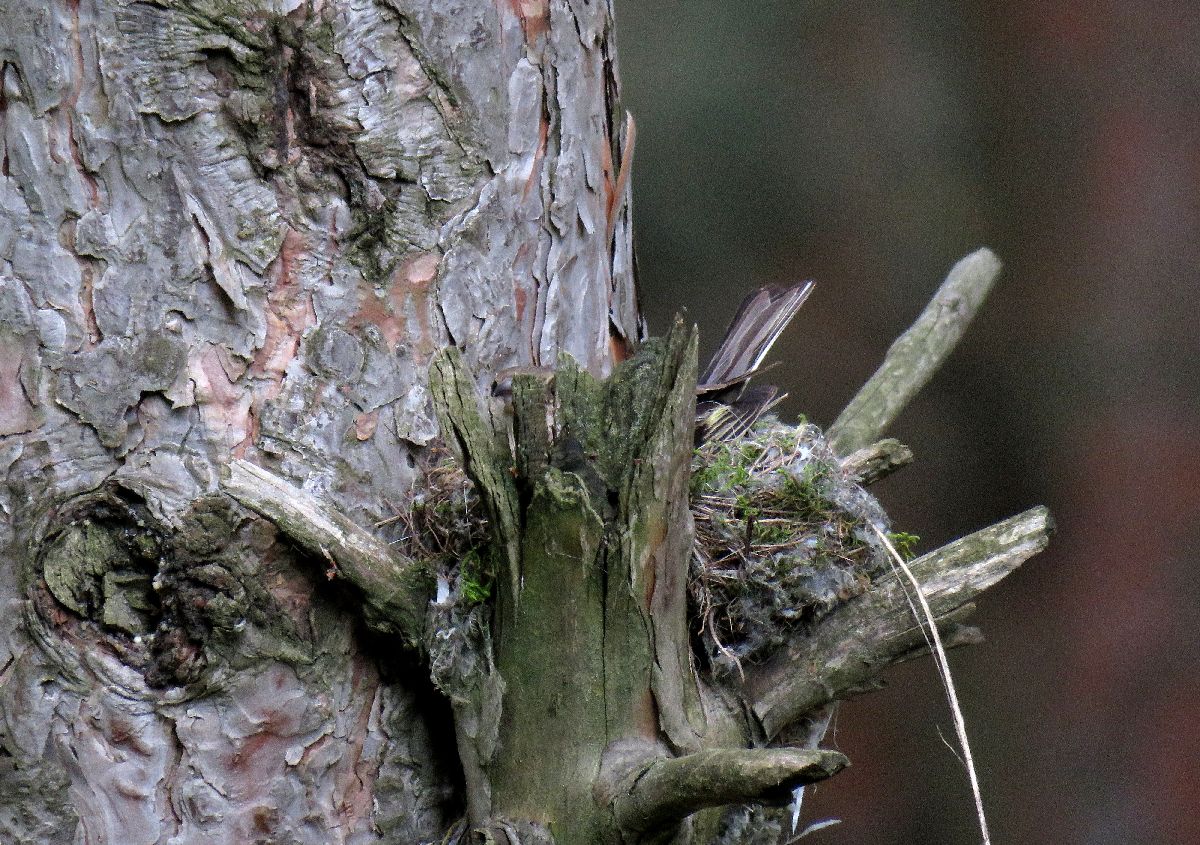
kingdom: Animalia
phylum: Chordata
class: Aves
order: Passeriformes
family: Fringillidae
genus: Fringilla
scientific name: Fringilla coelebs
